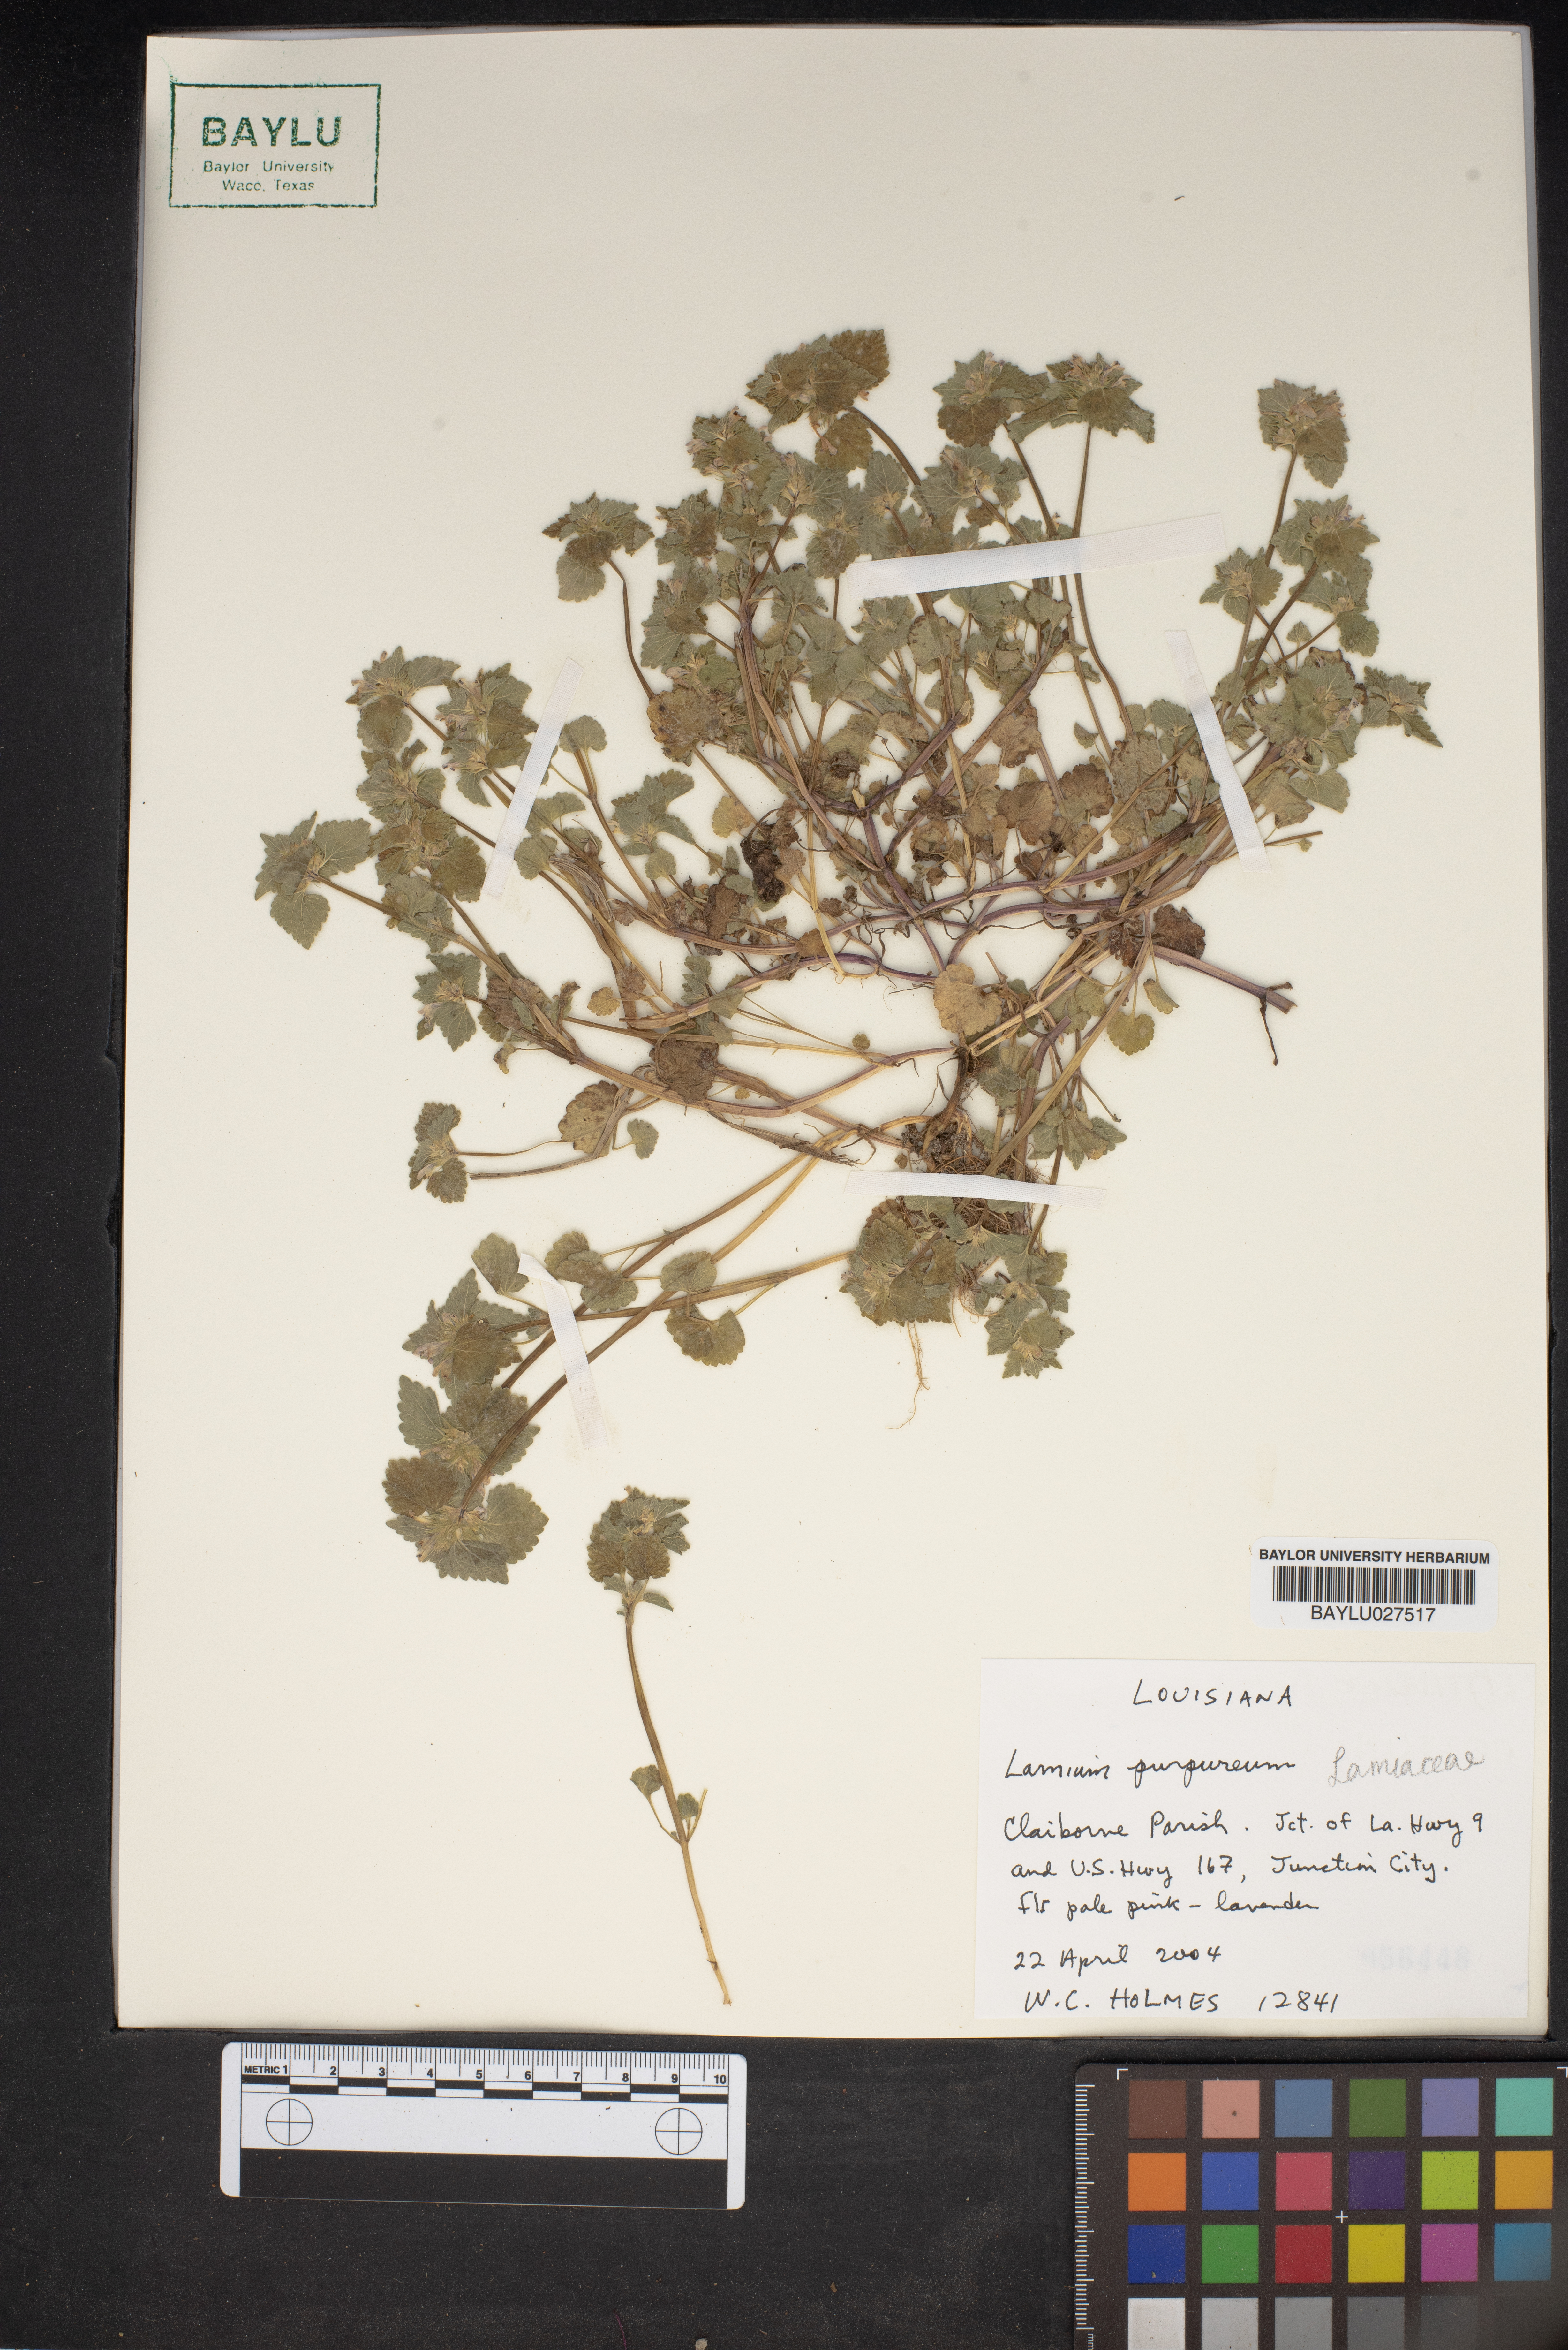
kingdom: Plantae
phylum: Tracheophyta
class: Magnoliopsida
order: Lamiales
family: Lamiaceae
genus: Lamium
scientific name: Lamium purpureum
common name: Red dead-nettle
